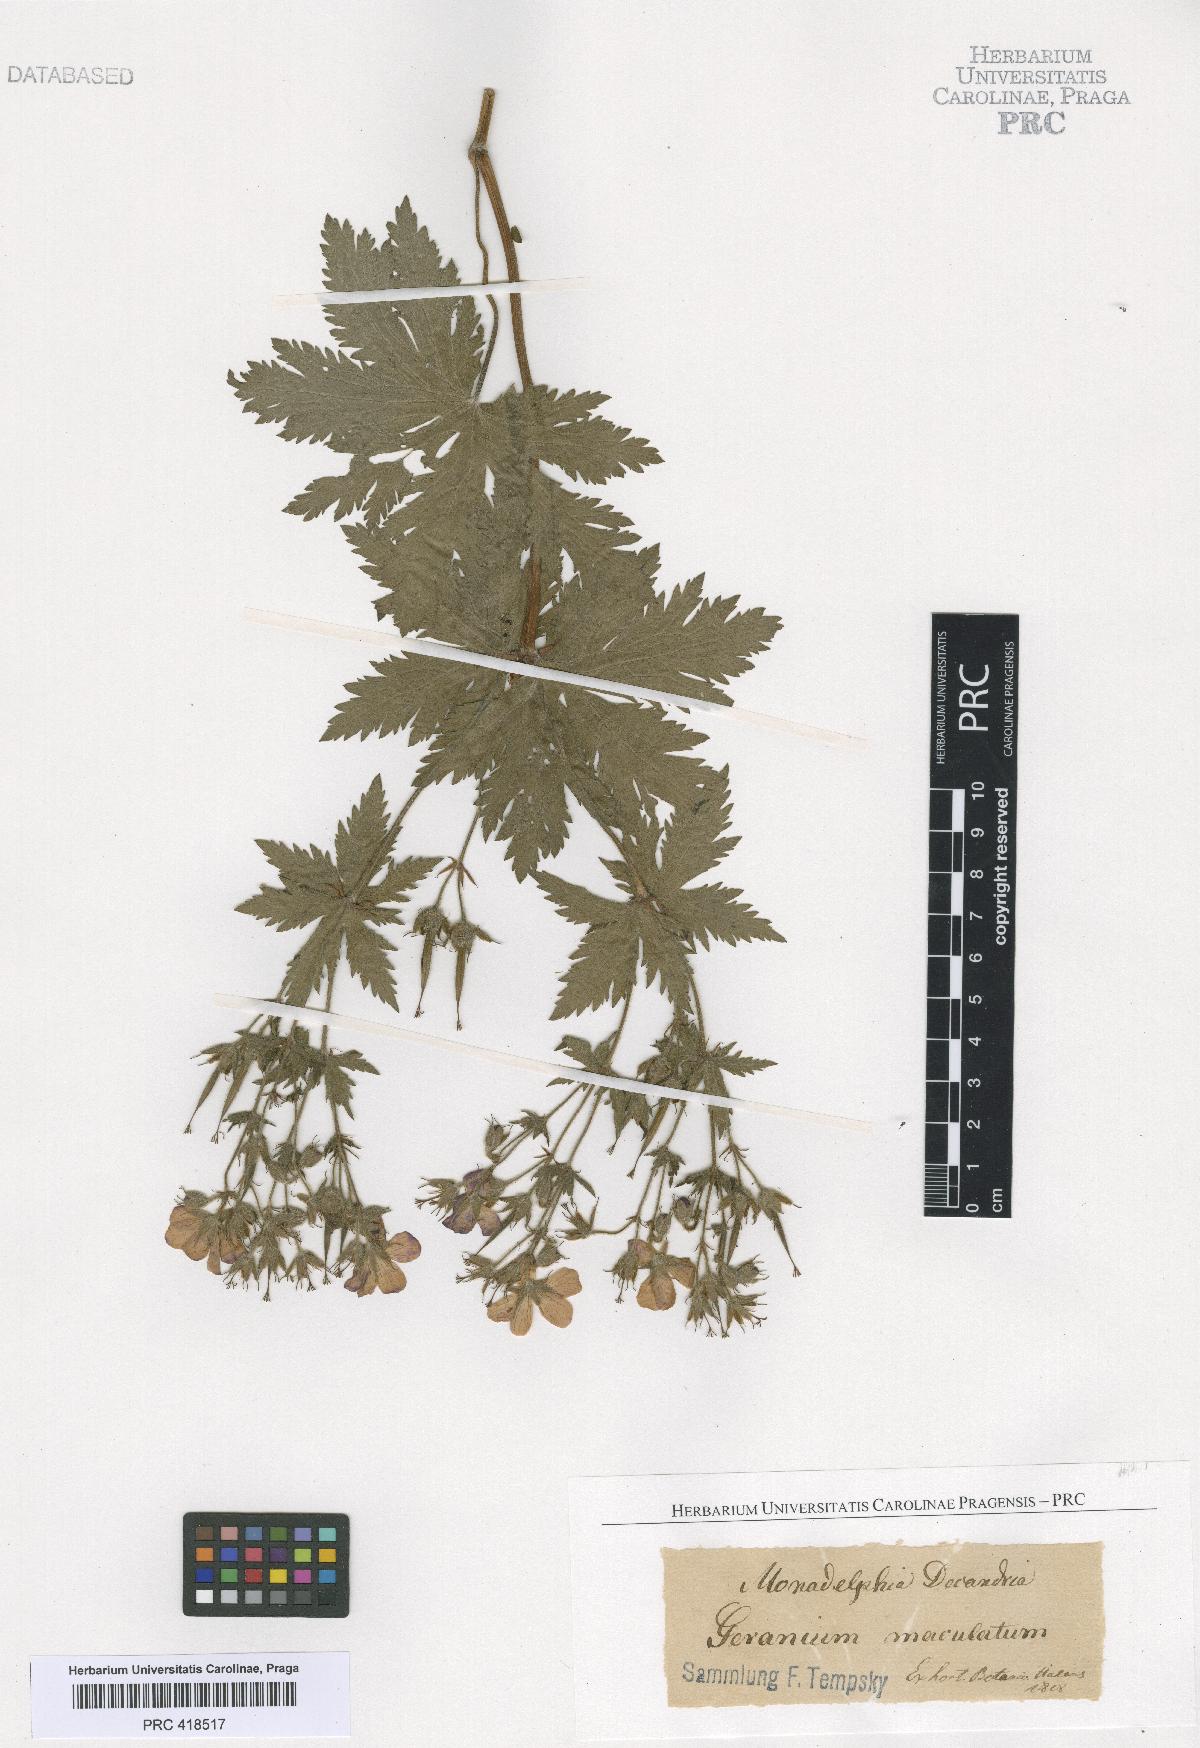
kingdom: Plantae
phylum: Tracheophyta
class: Magnoliopsida
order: Geraniales
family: Geraniaceae
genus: Geranium
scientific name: Geranium sylvaticum
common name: Wood crane's-bill
